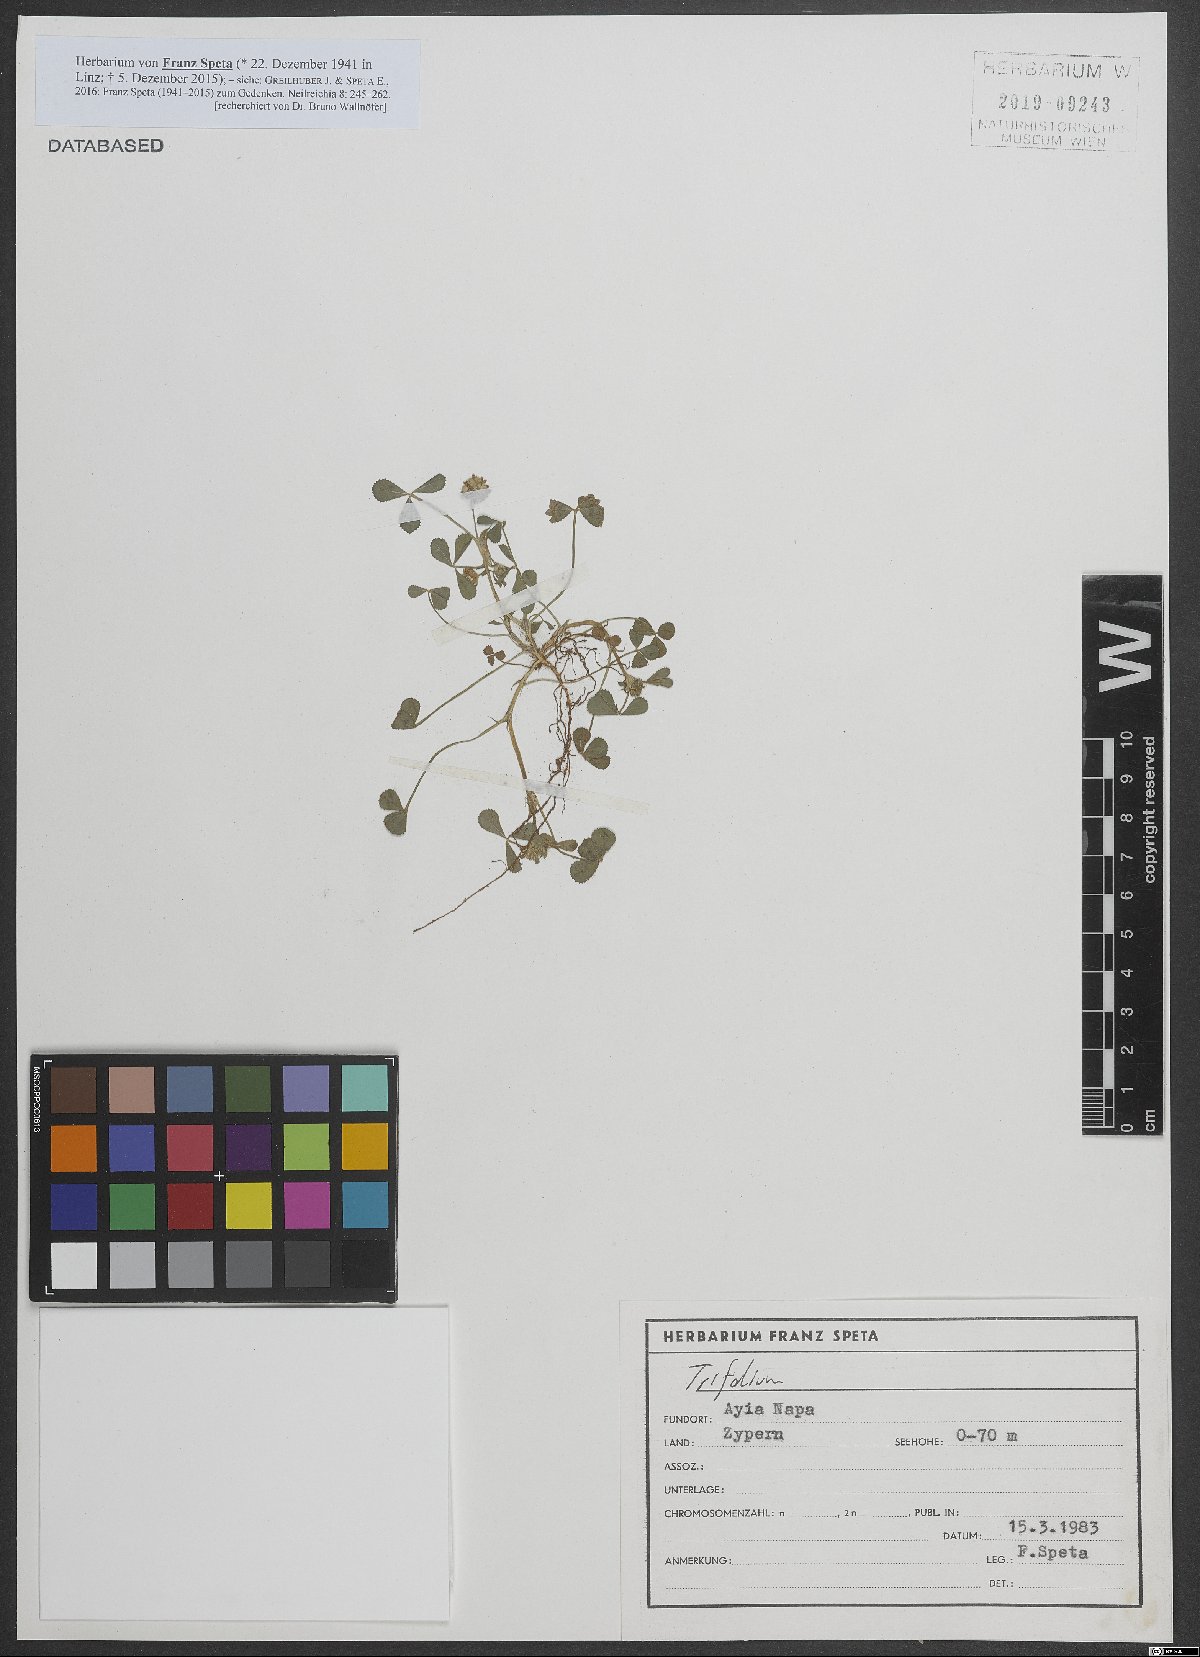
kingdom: Plantae
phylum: Tracheophyta
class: Magnoliopsida
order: Fabales
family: Fabaceae
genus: Trifolium
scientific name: Trifolium physodes
